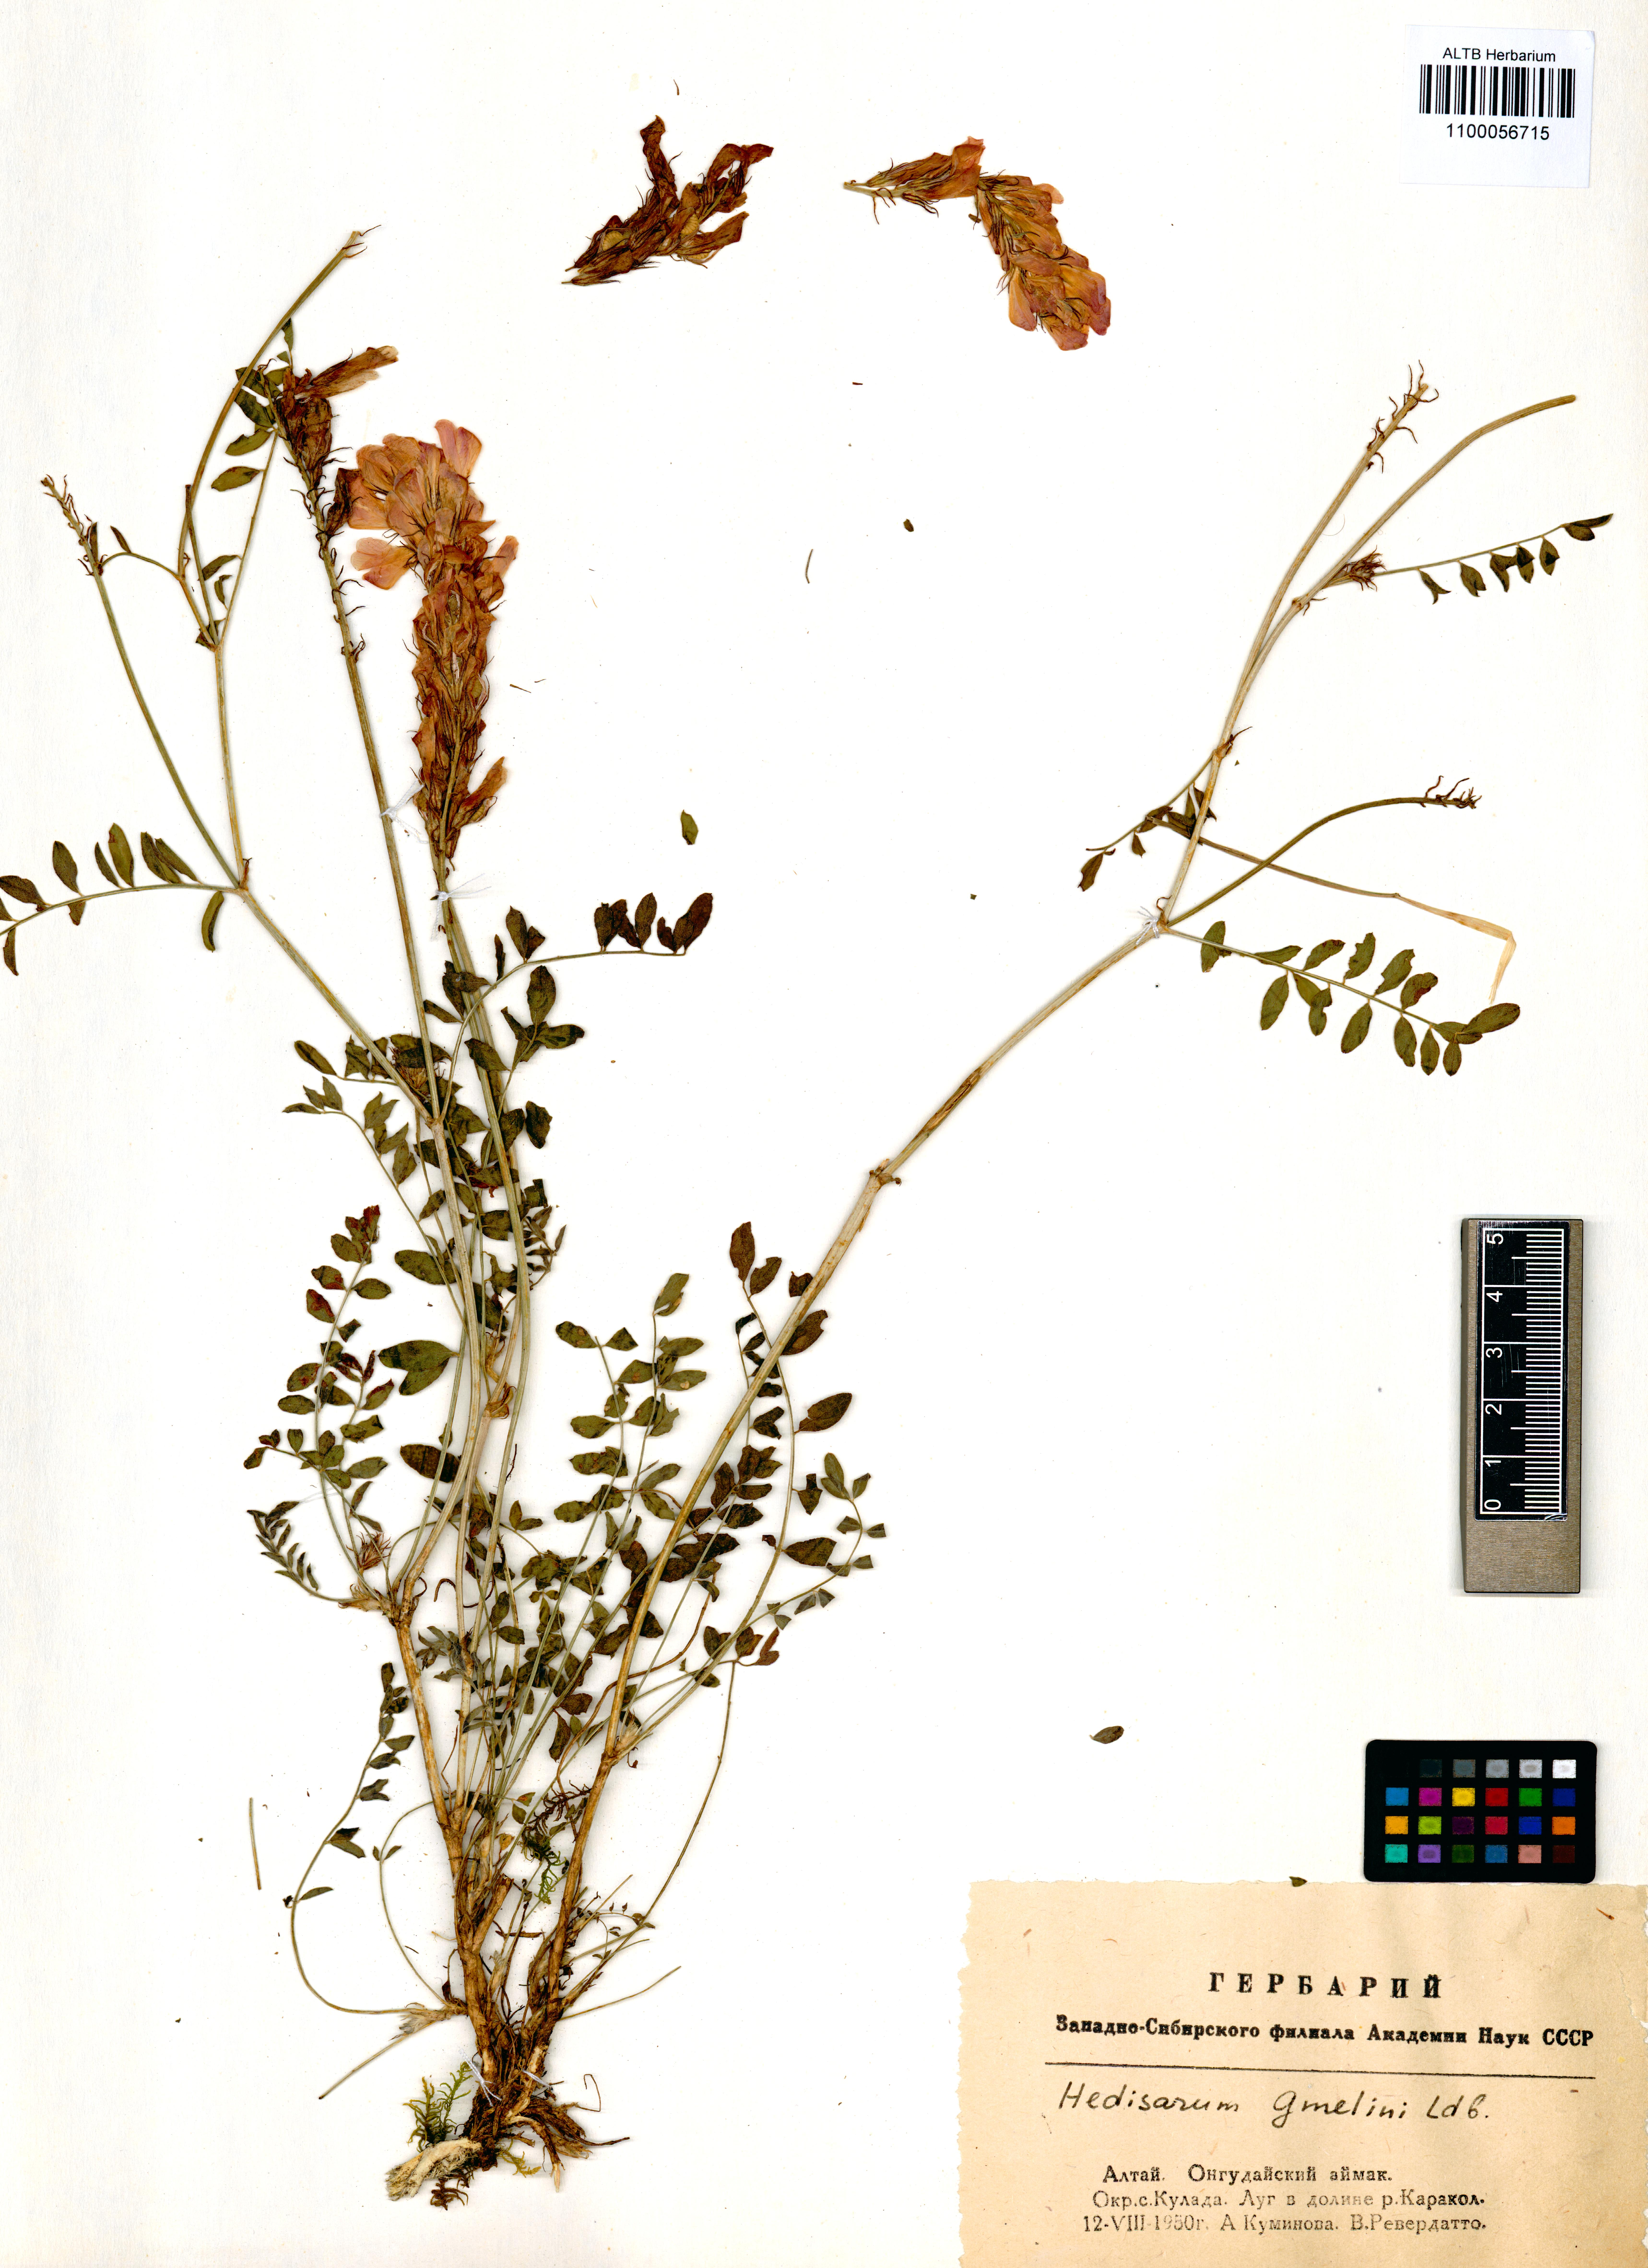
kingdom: Plantae
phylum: Tracheophyta
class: Magnoliopsida
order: Fabales
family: Fabaceae
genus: Hedysarum
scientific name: Hedysarum gmelinii
